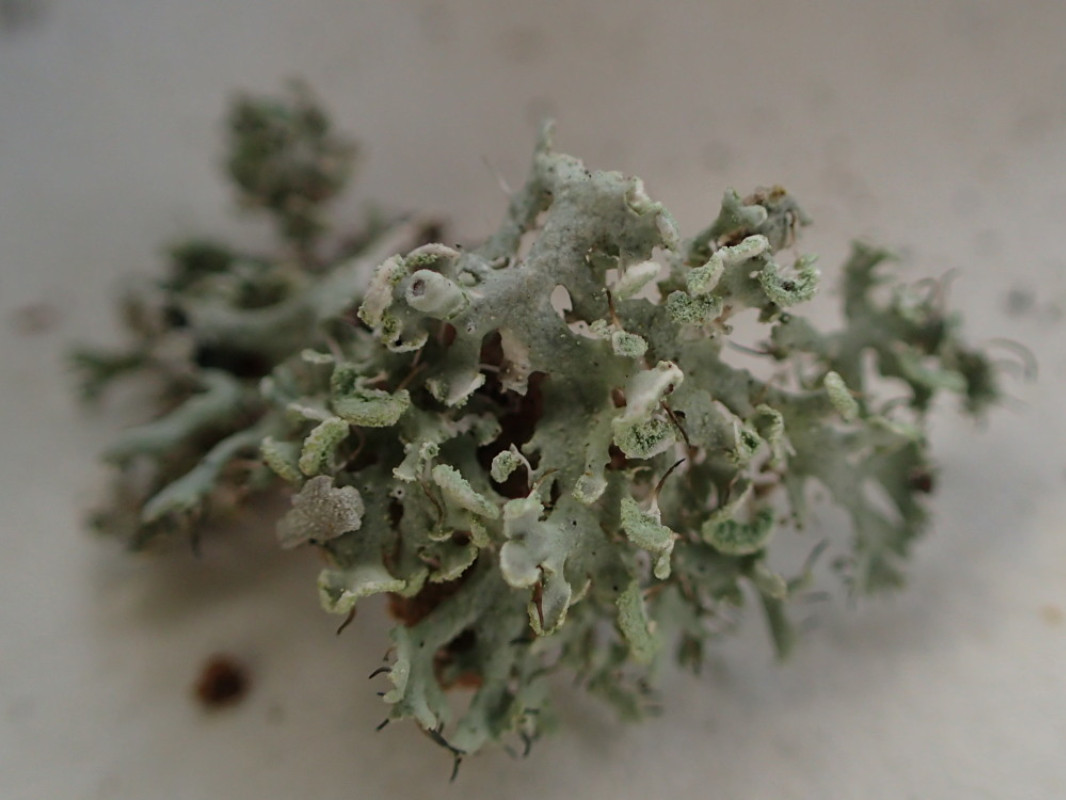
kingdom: Fungi
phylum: Ascomycota
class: Lecanoromycetes
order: Caliciales
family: Physciaceae
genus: Physcia
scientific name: Physcia tenella
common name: spæd rosetlav
